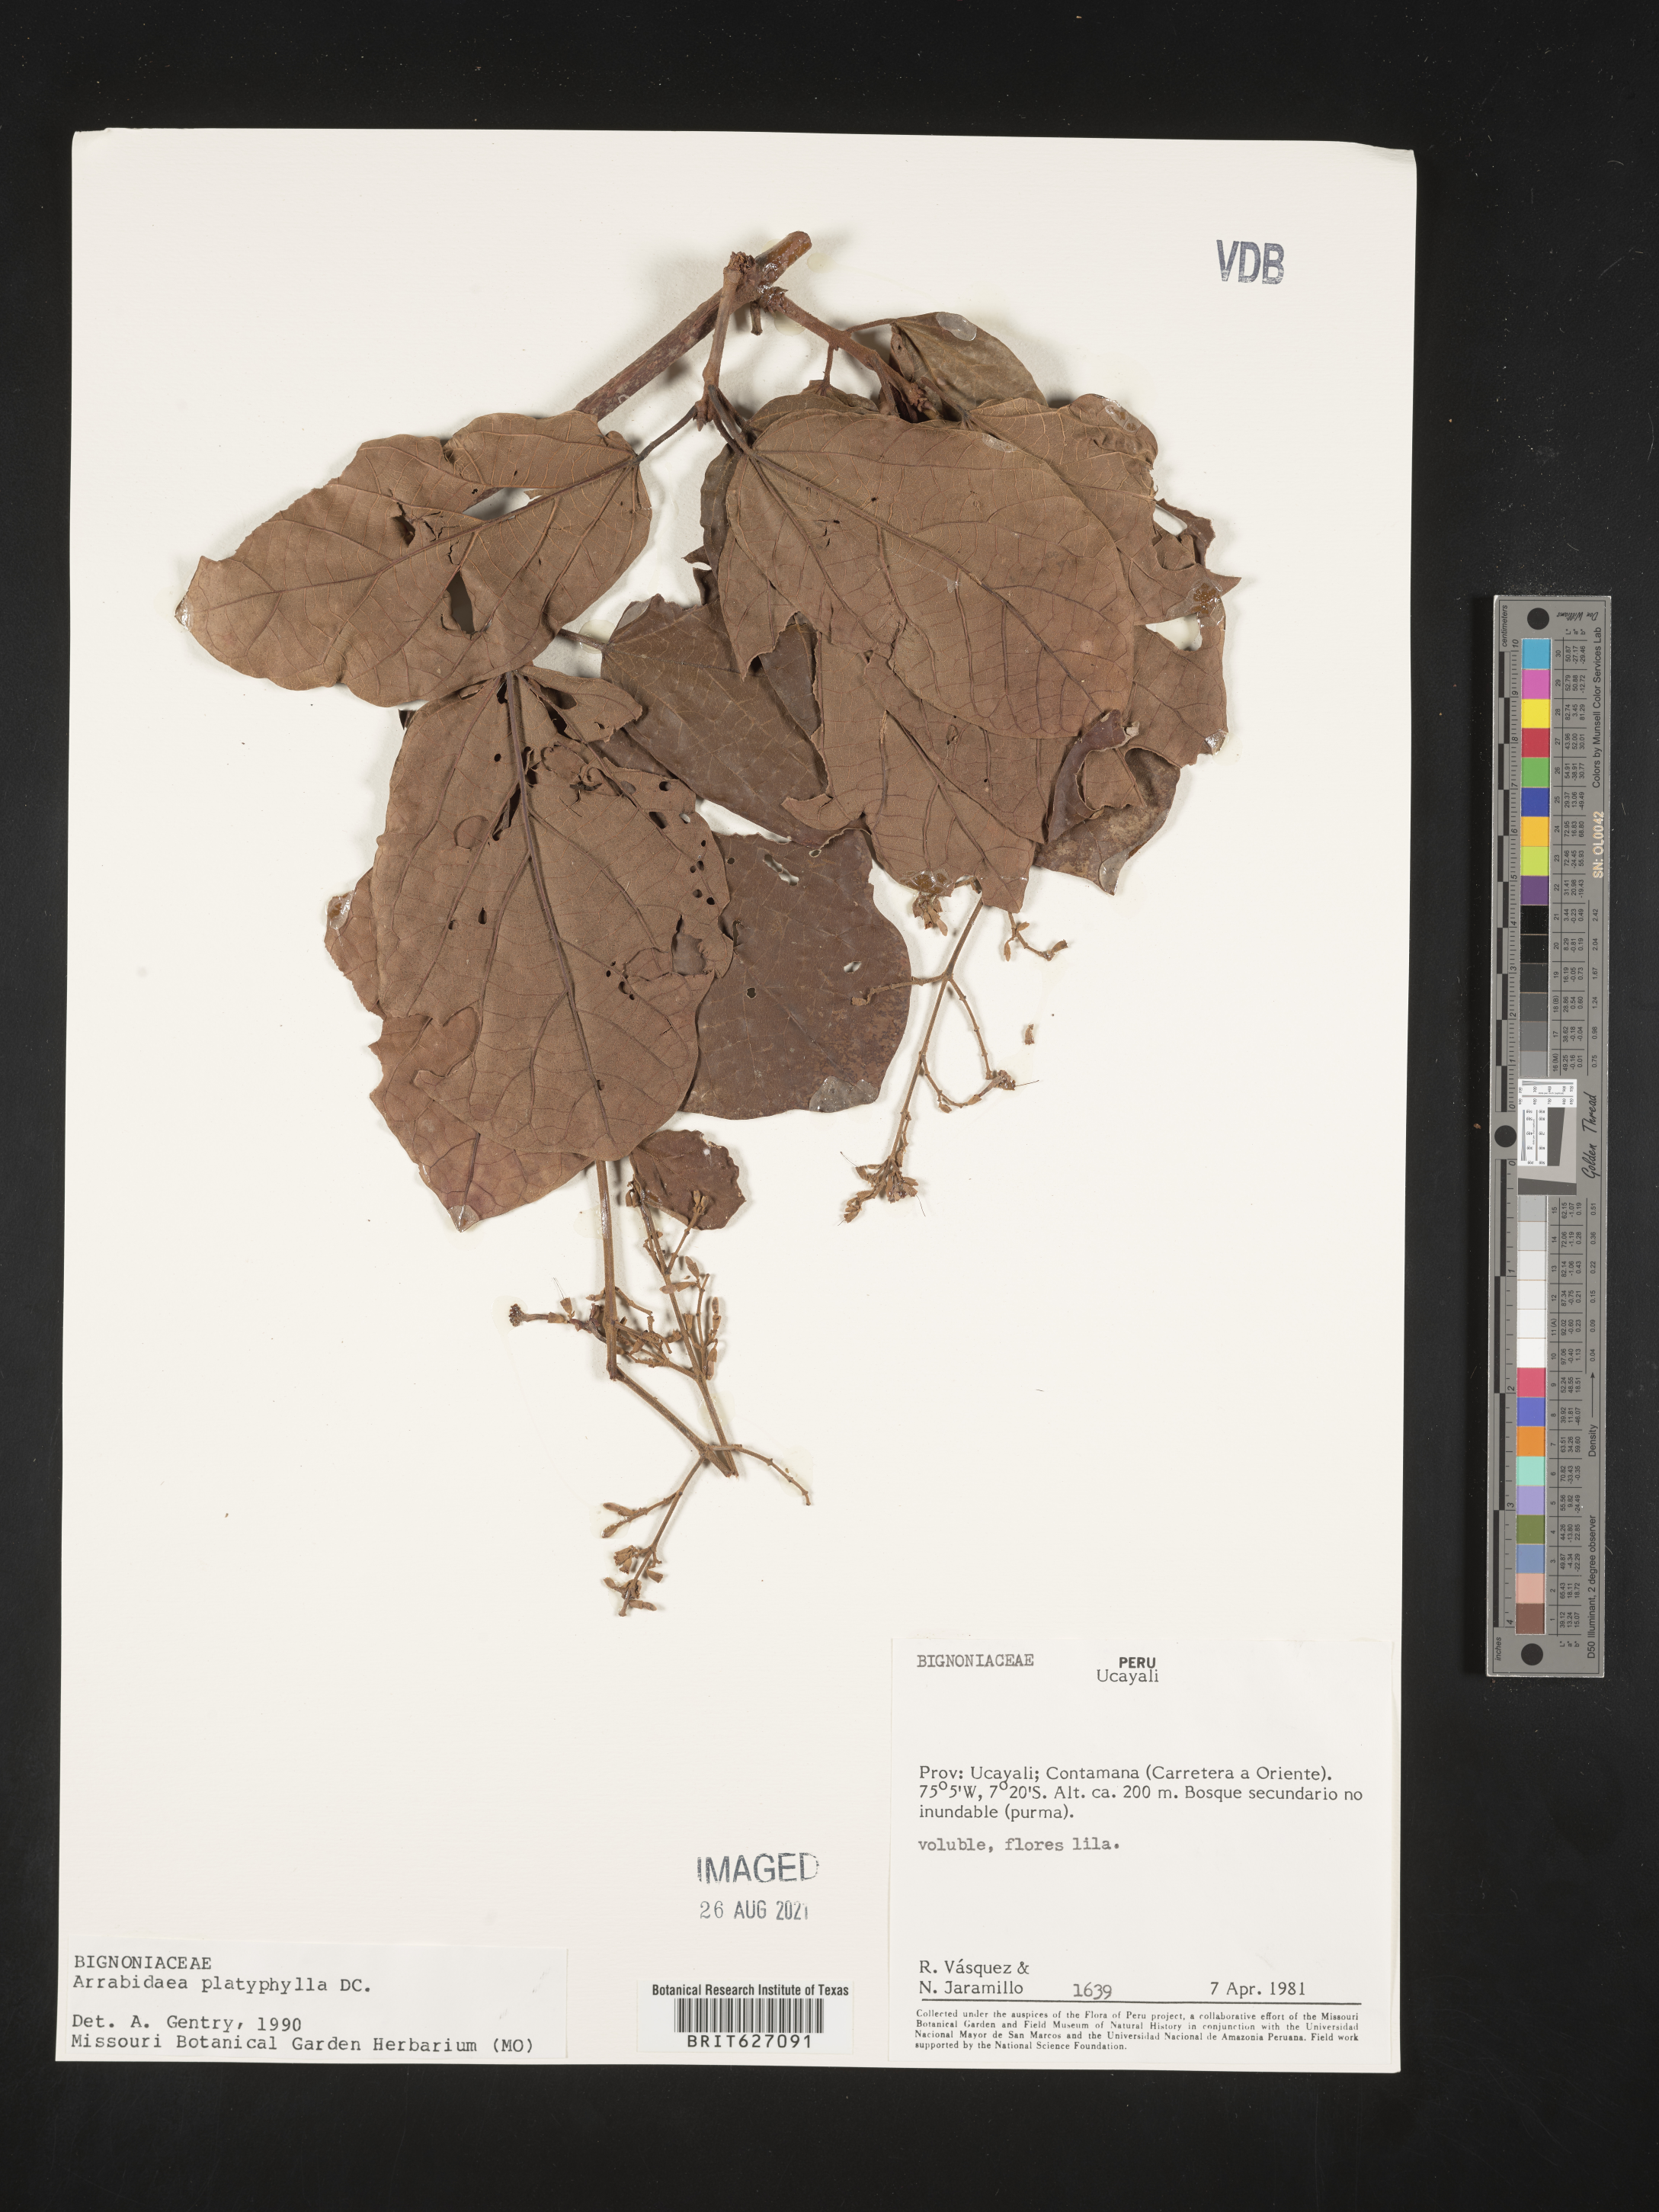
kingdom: Plantae
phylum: Tracheophyta
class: Magnoliopsida
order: Lamiales
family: Bignoniaceae
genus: Xylophragma
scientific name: Xylophragma platyphyllum
